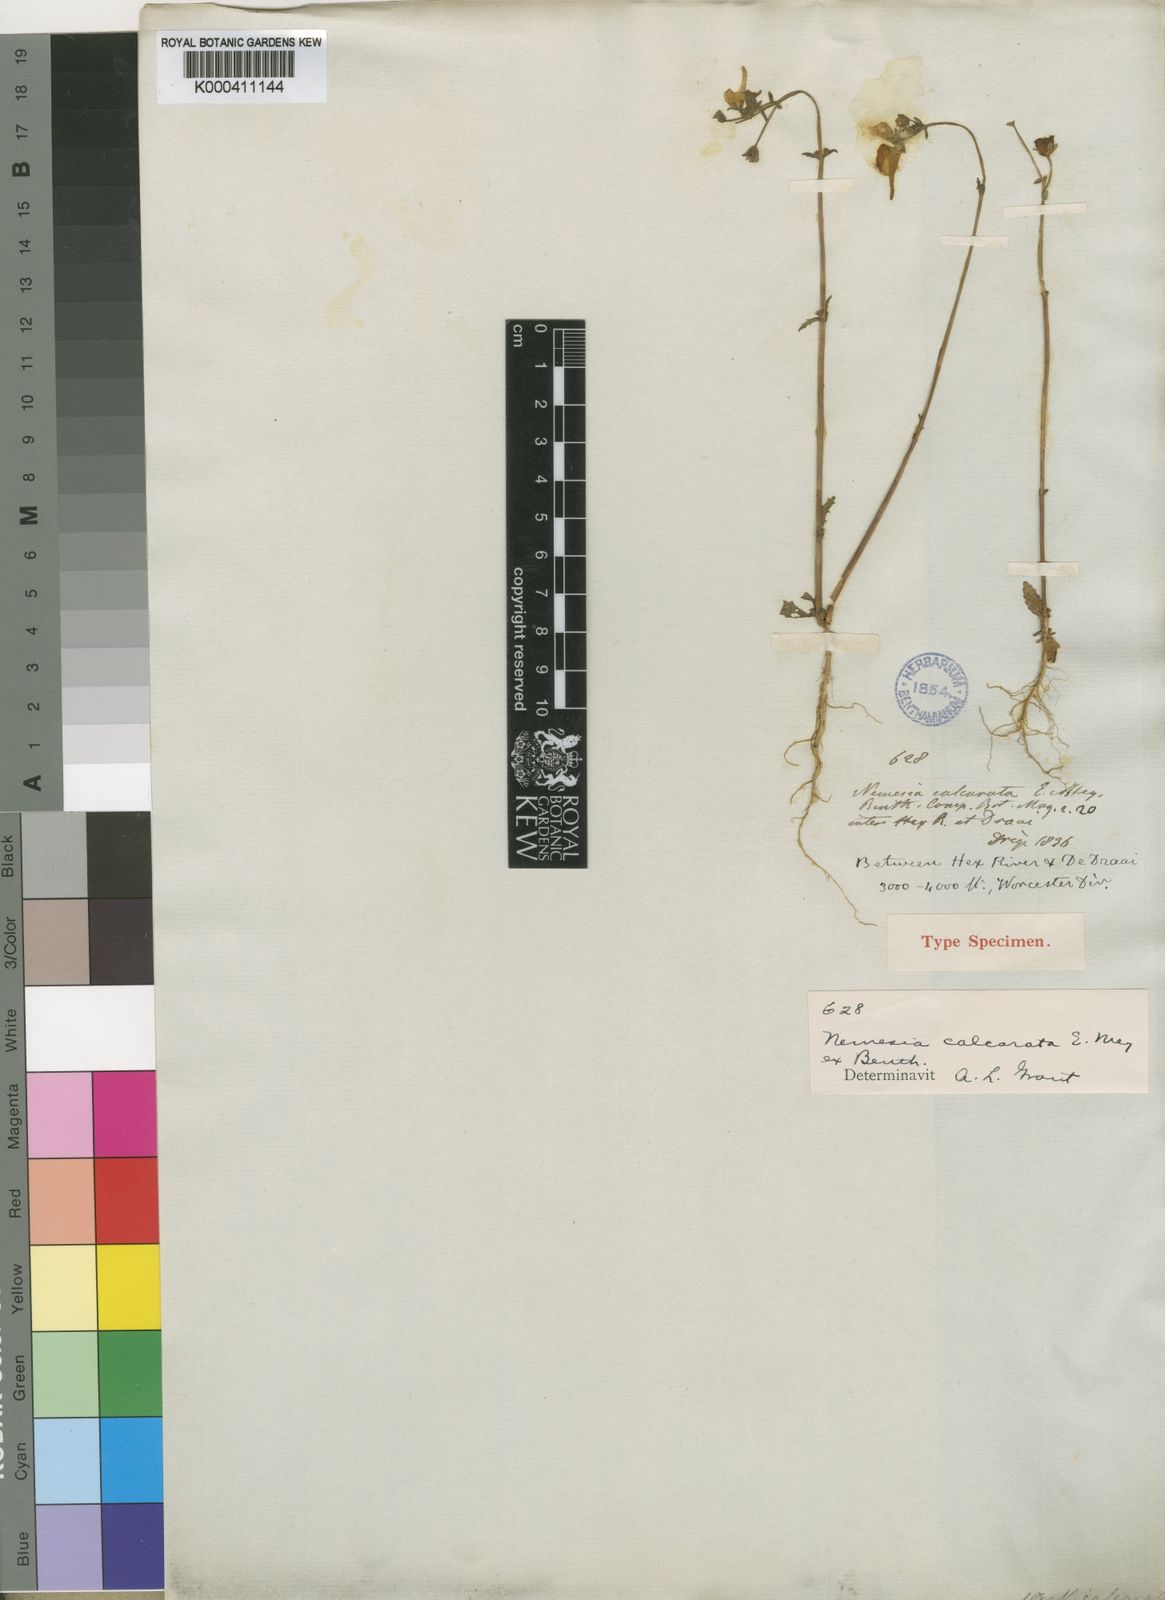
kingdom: Plantae
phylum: Tracheophyta
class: Magnoliopsida
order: Lamiales
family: Scrophulariaceae
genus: Nemesia
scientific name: Nemesia calcarata
